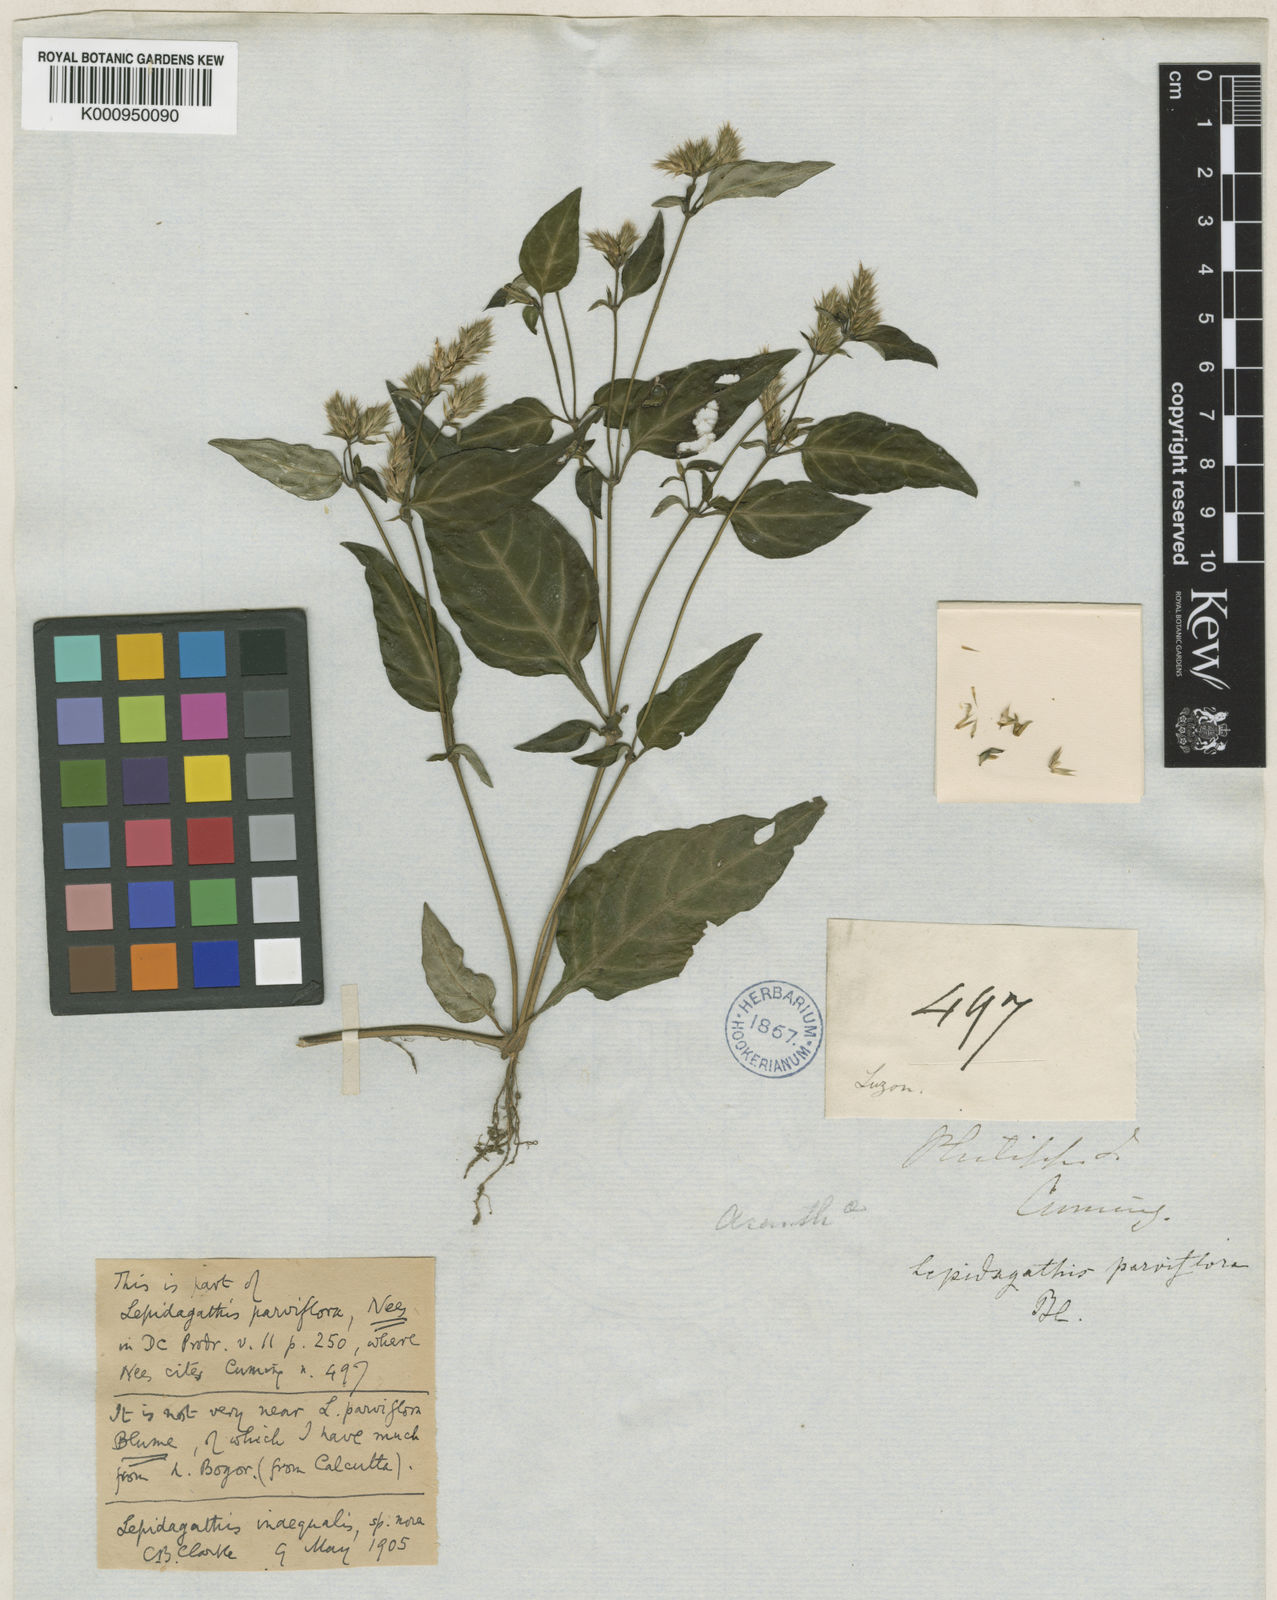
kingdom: Plantae
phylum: Tracheophyta
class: Magnoliopsida
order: Lamiales
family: Acanthaceae
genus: Lepidagathis
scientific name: Lepidagathis inaequalis
